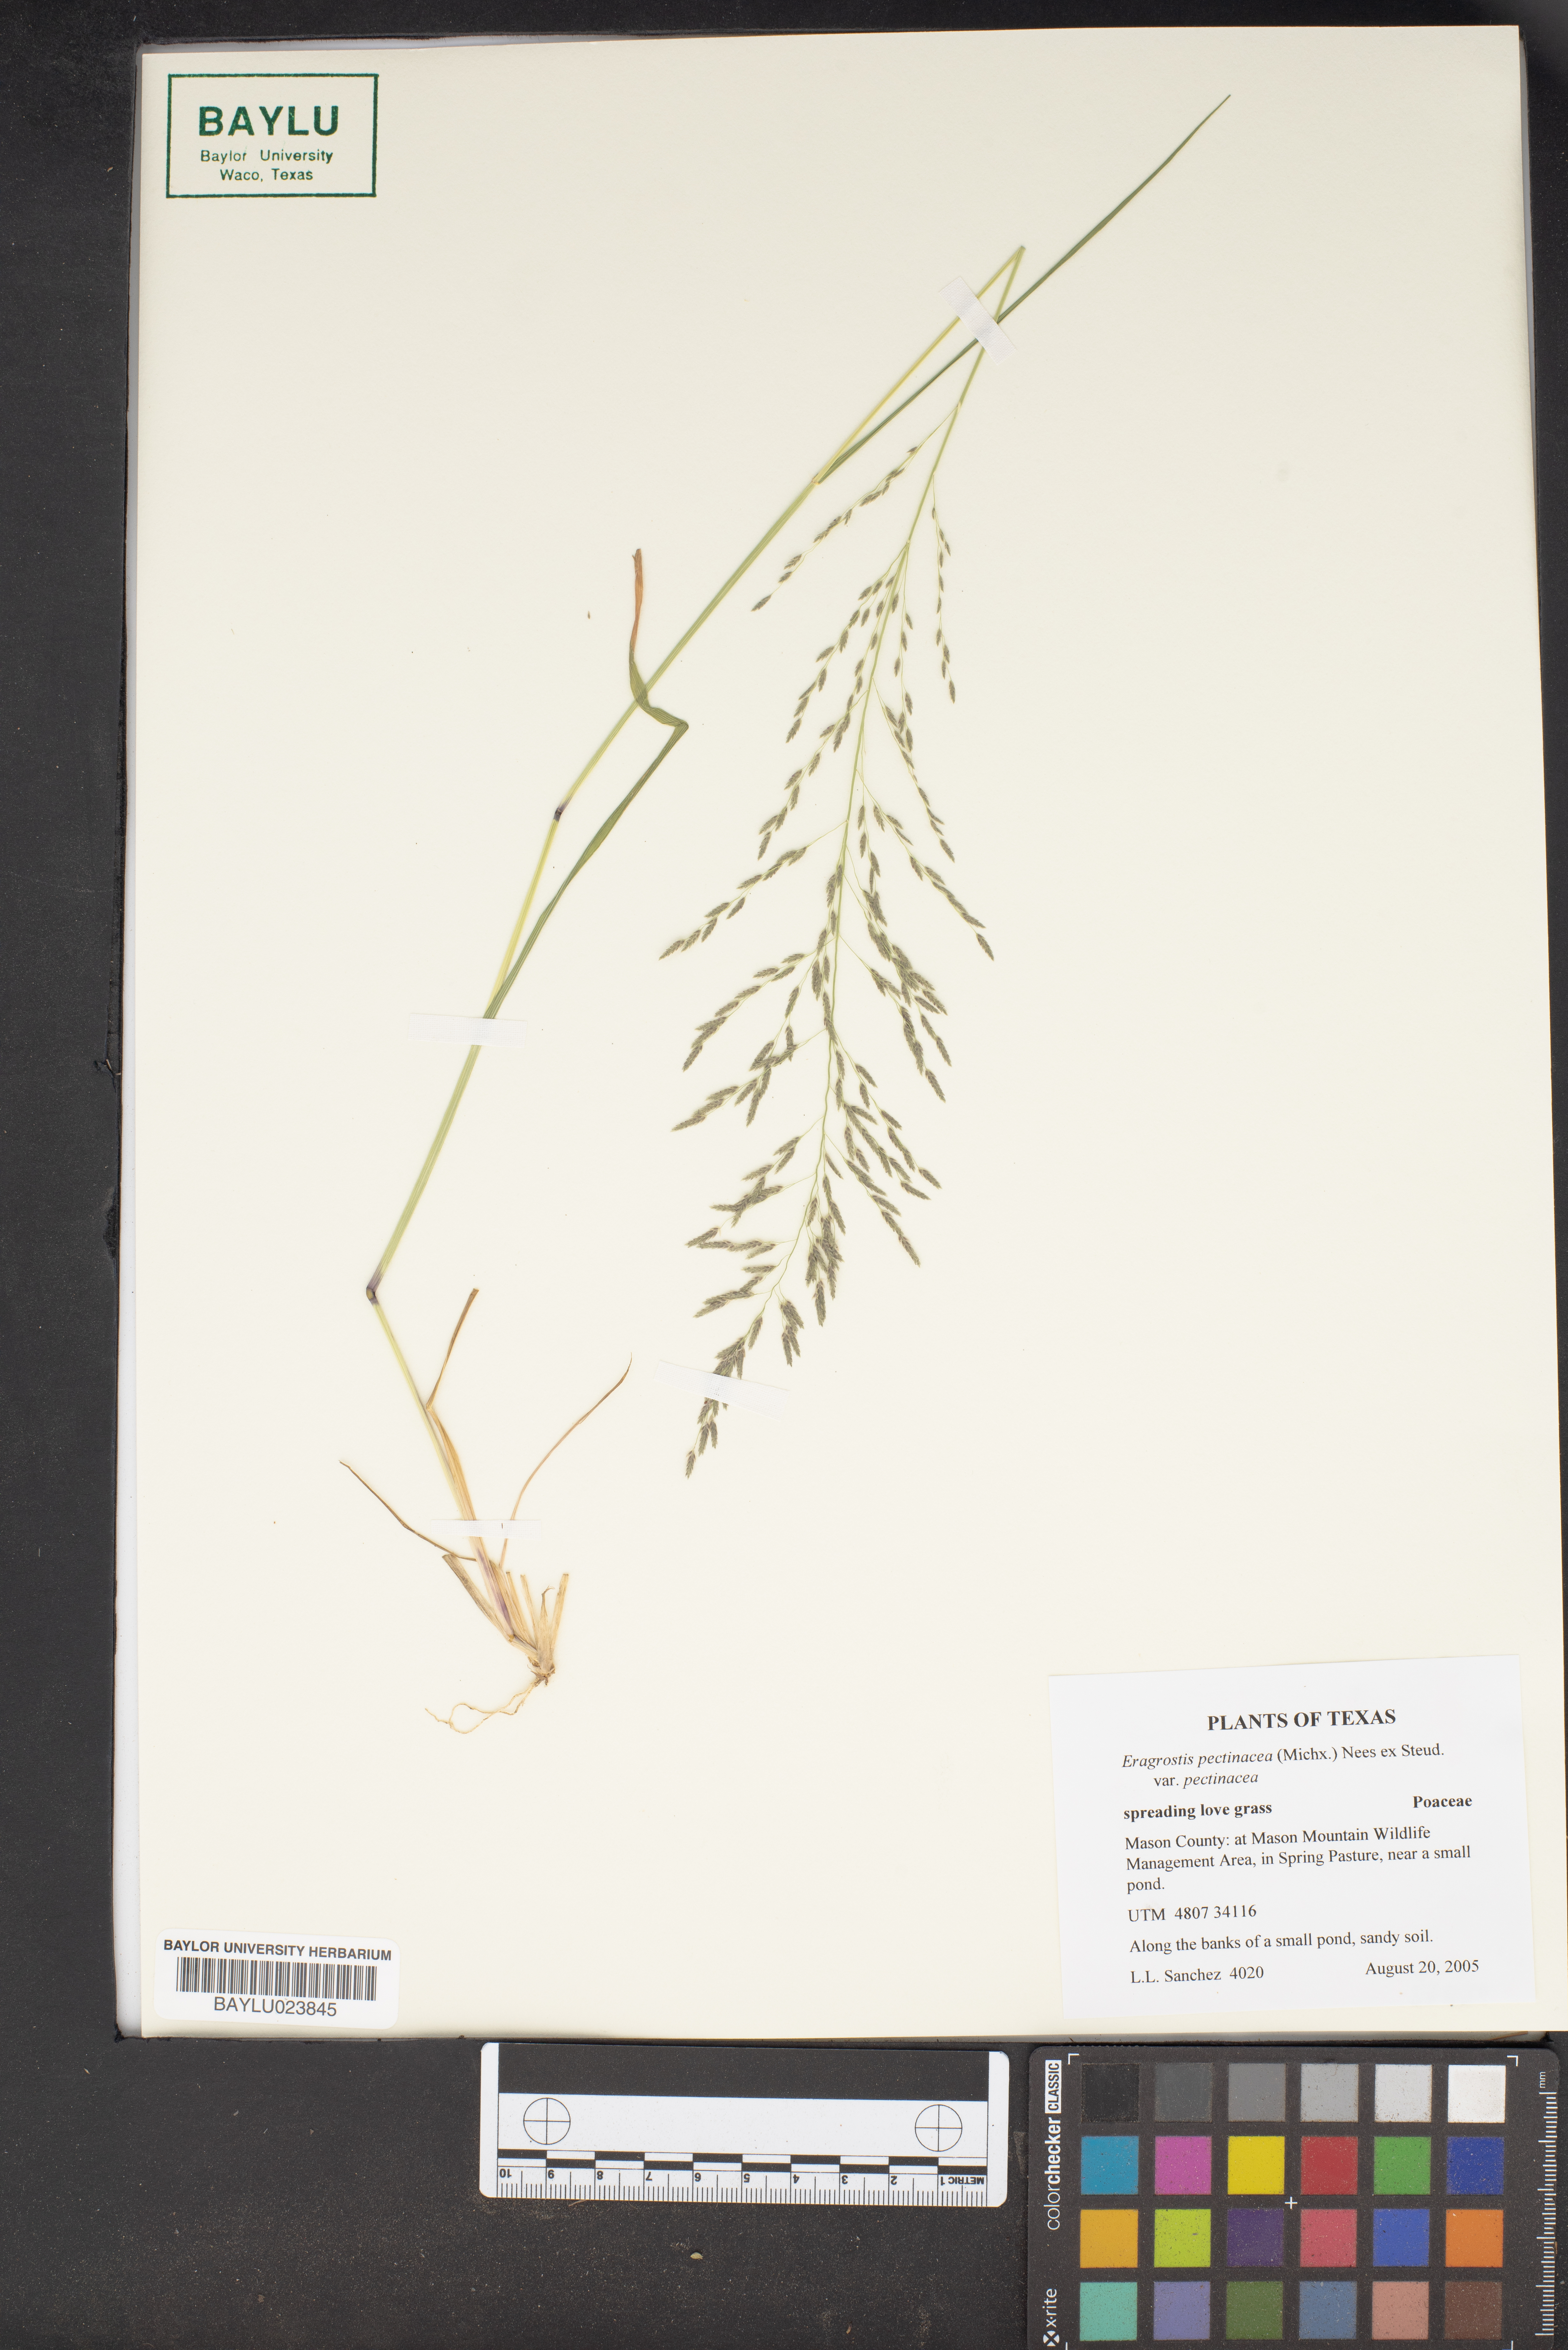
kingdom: Plantae
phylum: Tracheophyta
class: Liliopsida
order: Poales
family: Poaceae
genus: Eragrostis
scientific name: Eragrostis pectinacea
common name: Tufted lovegrass
